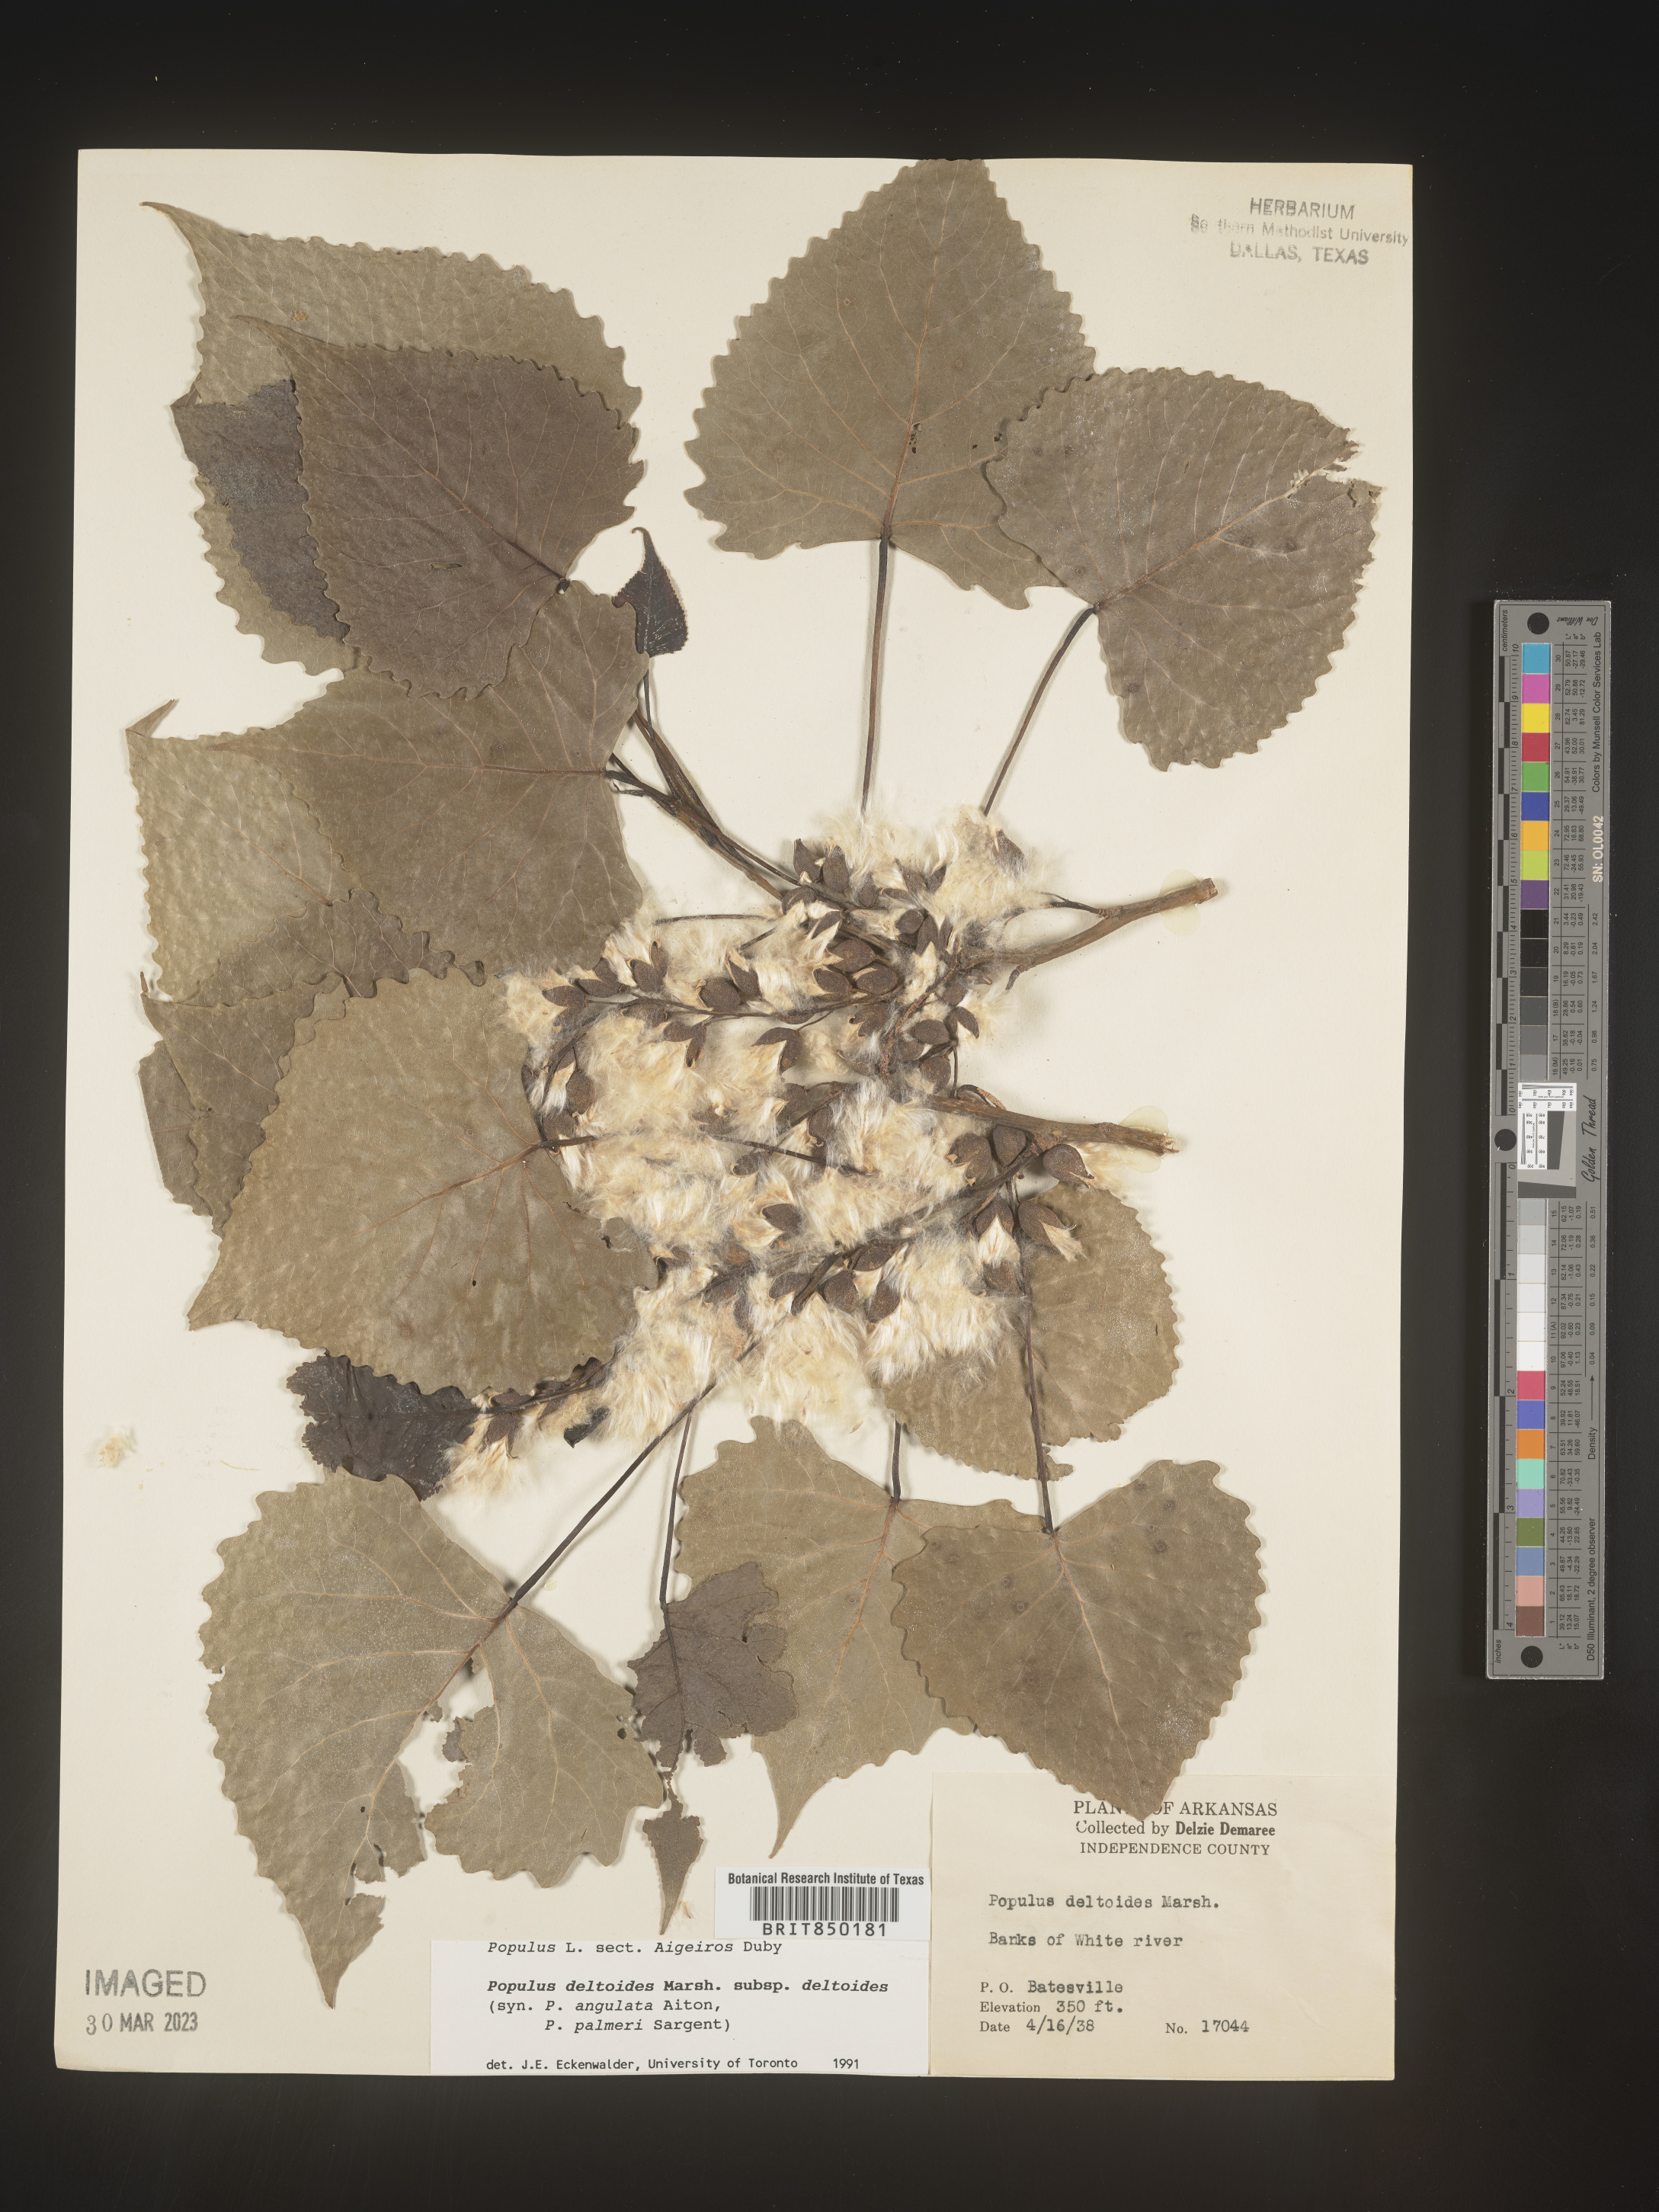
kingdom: Plantae
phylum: Tracheophyta
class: Magnoliopsida
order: Malpighiales
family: Salicaceae
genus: Populus
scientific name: Populus deltoides
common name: Eastern cottonwood
